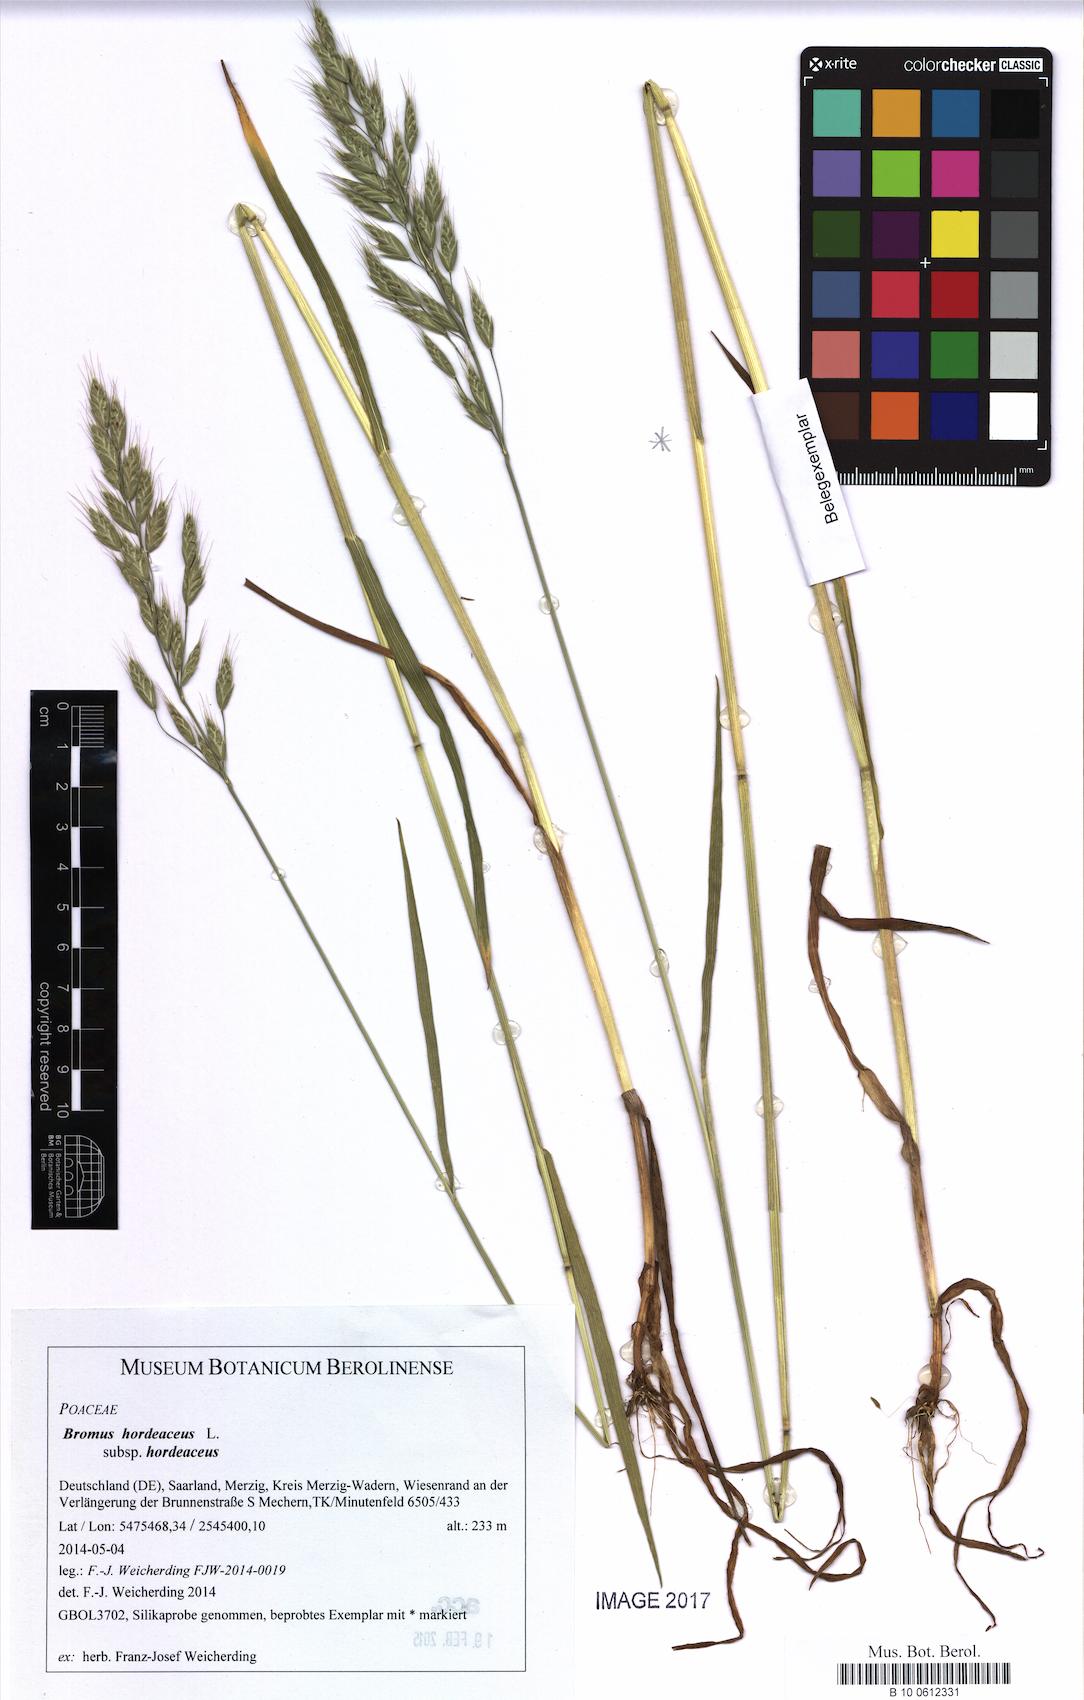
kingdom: Plantae
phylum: Tracheophyta
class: Liliopsida
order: Poales
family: Poaceae
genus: Bromus
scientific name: Bromus hordeaceus
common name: Soft brome
